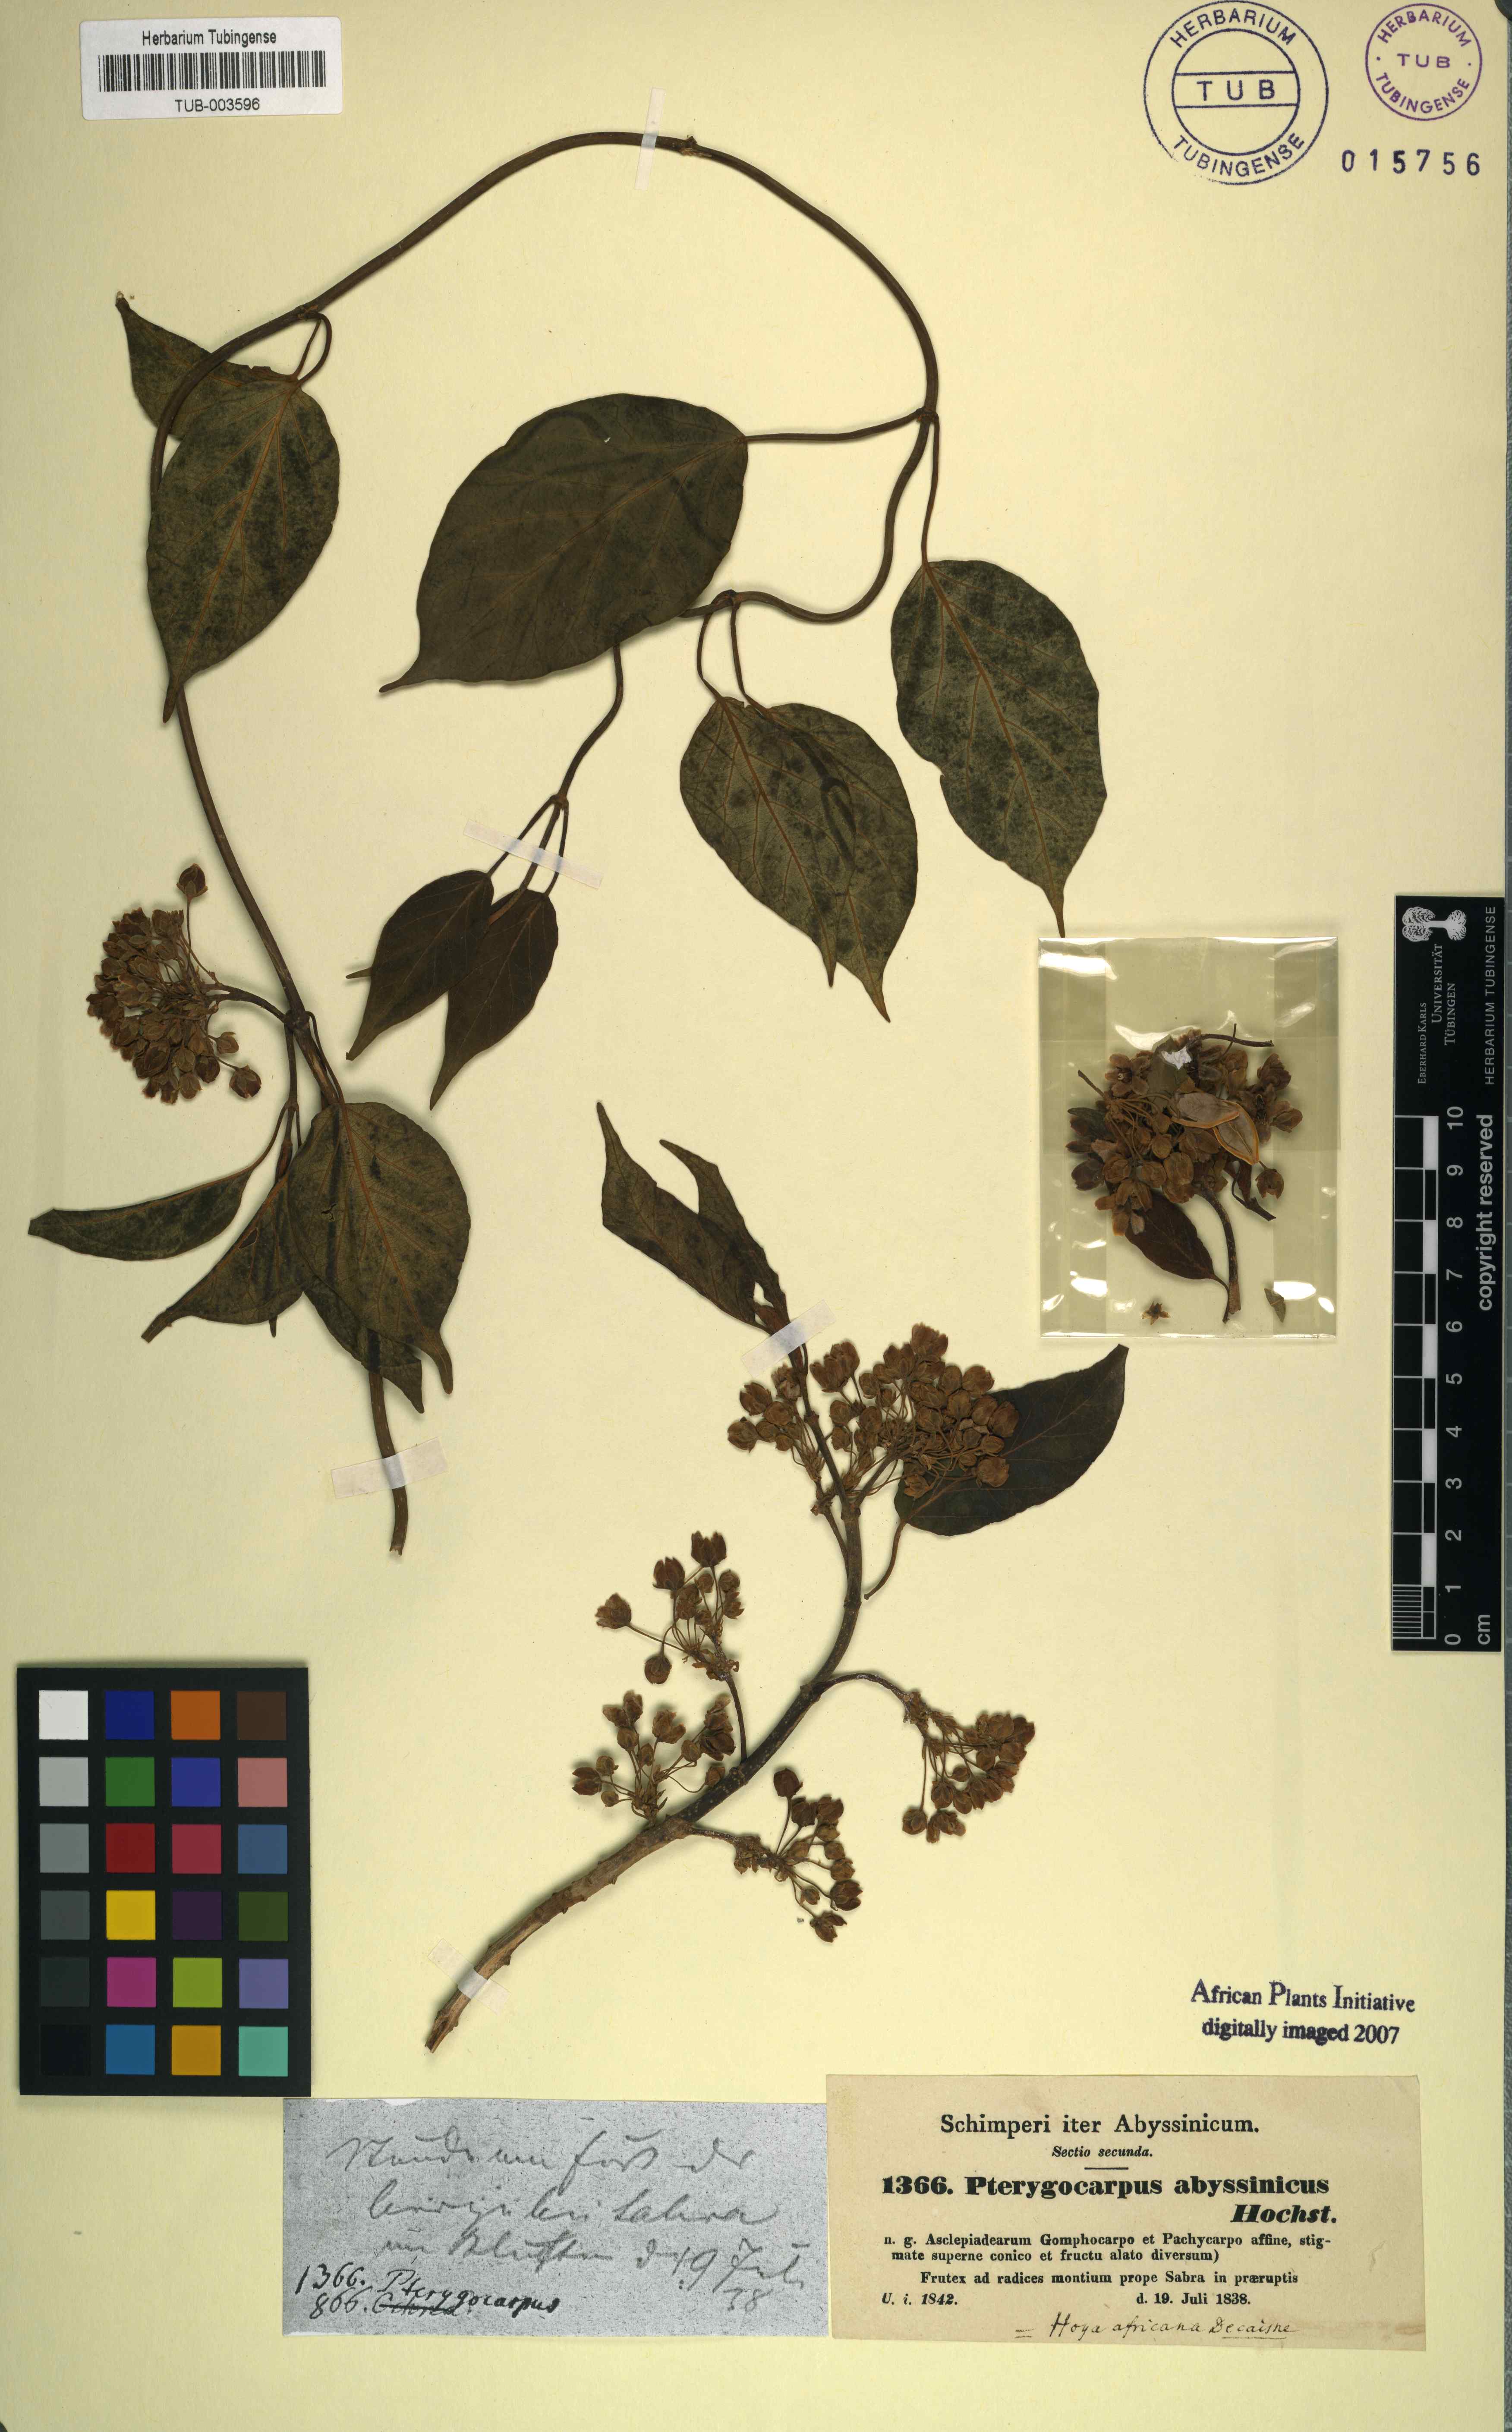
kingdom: Plantae
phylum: Tracheophyta
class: Magnoliopsida
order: Gentianales
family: Apocynaceae
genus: Stephanotis
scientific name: Stephanotis abyssinica
